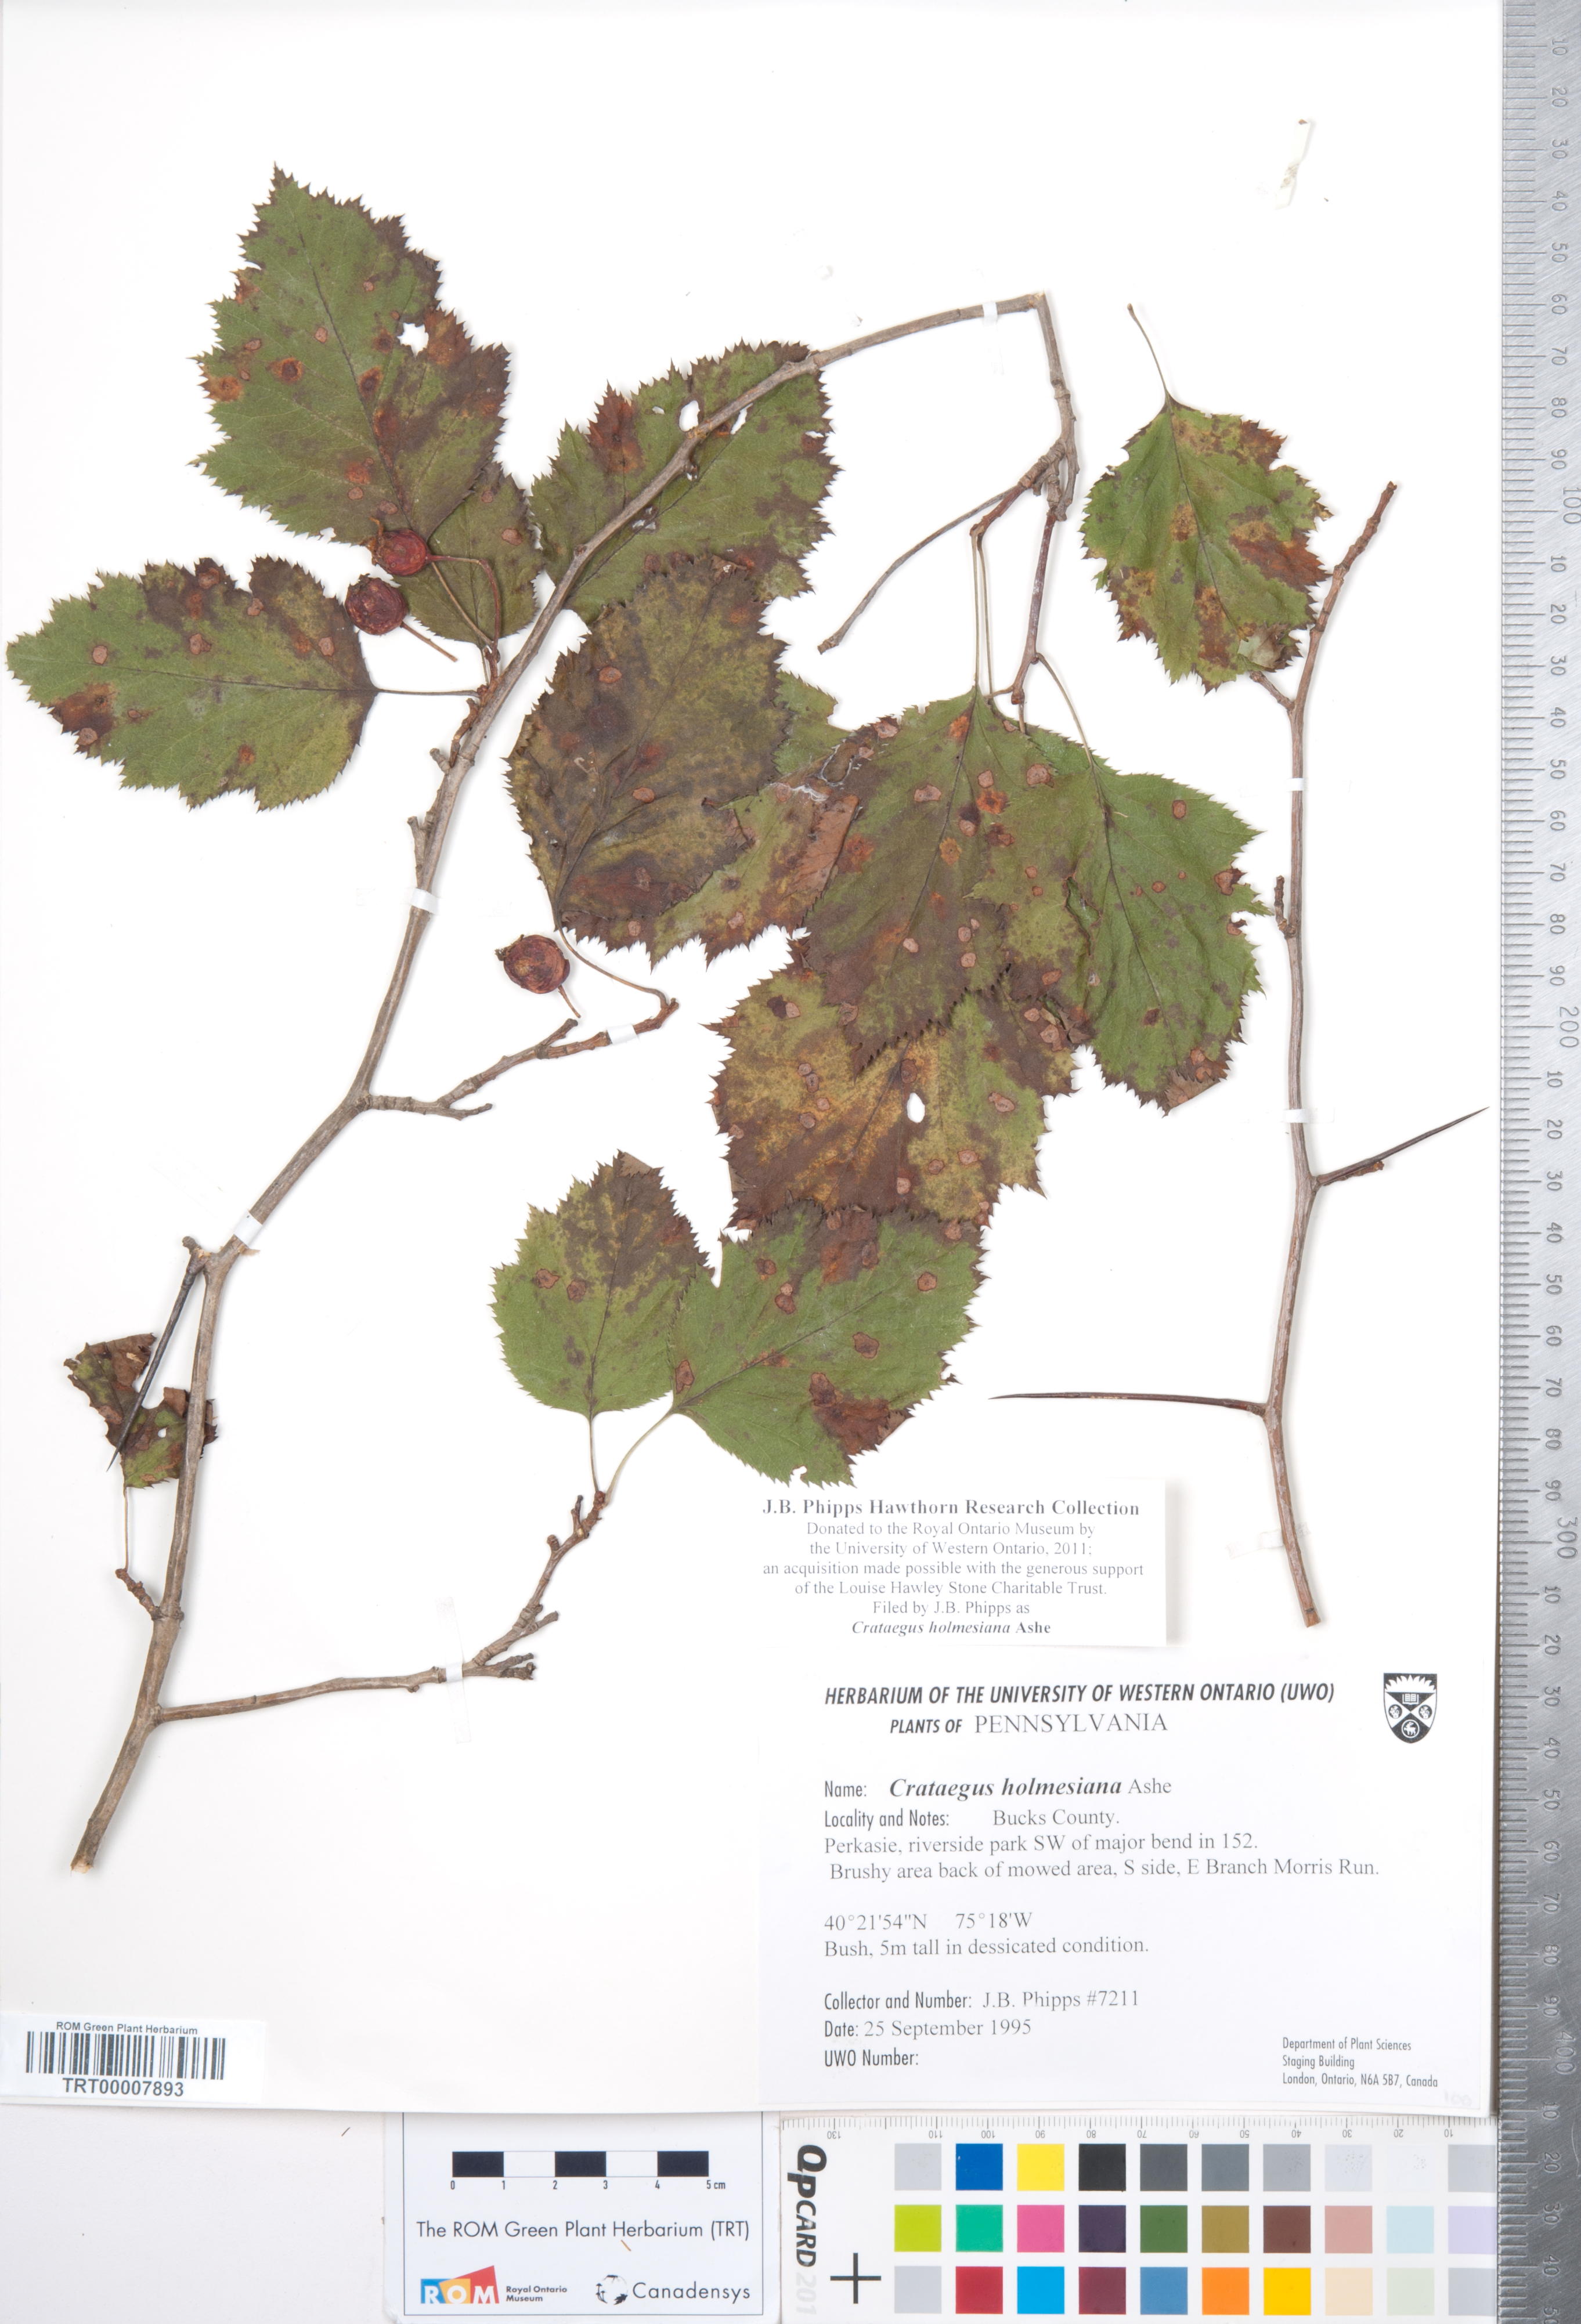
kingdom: Plantae
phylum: Tracheophyta
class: Magnoliopsida
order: Rosales
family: Rosaceae
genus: Crataegus
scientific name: Crataegus holmesiana
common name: Holmes' hawthorn
